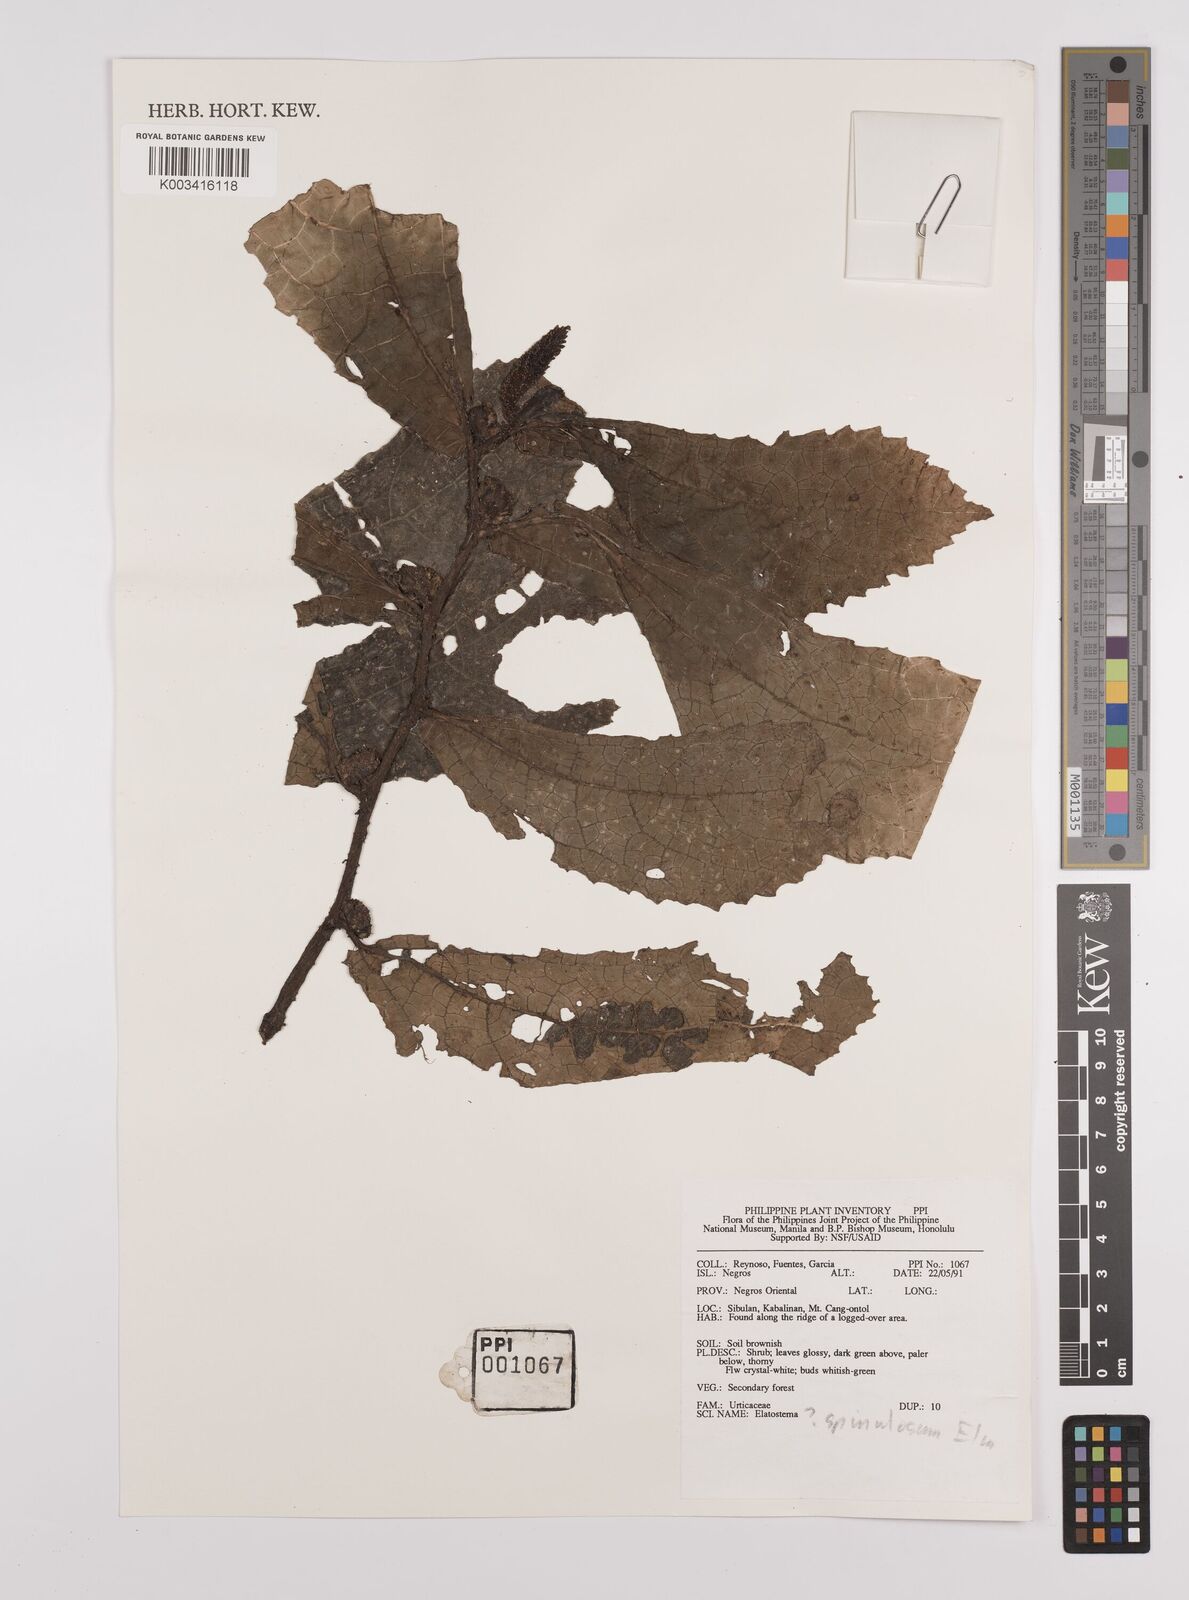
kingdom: Plantae
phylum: Tracheophyta
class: Magnoliopsida
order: Rosales
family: Urticaceae
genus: Elatostema
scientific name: Elatostema spinulosum
